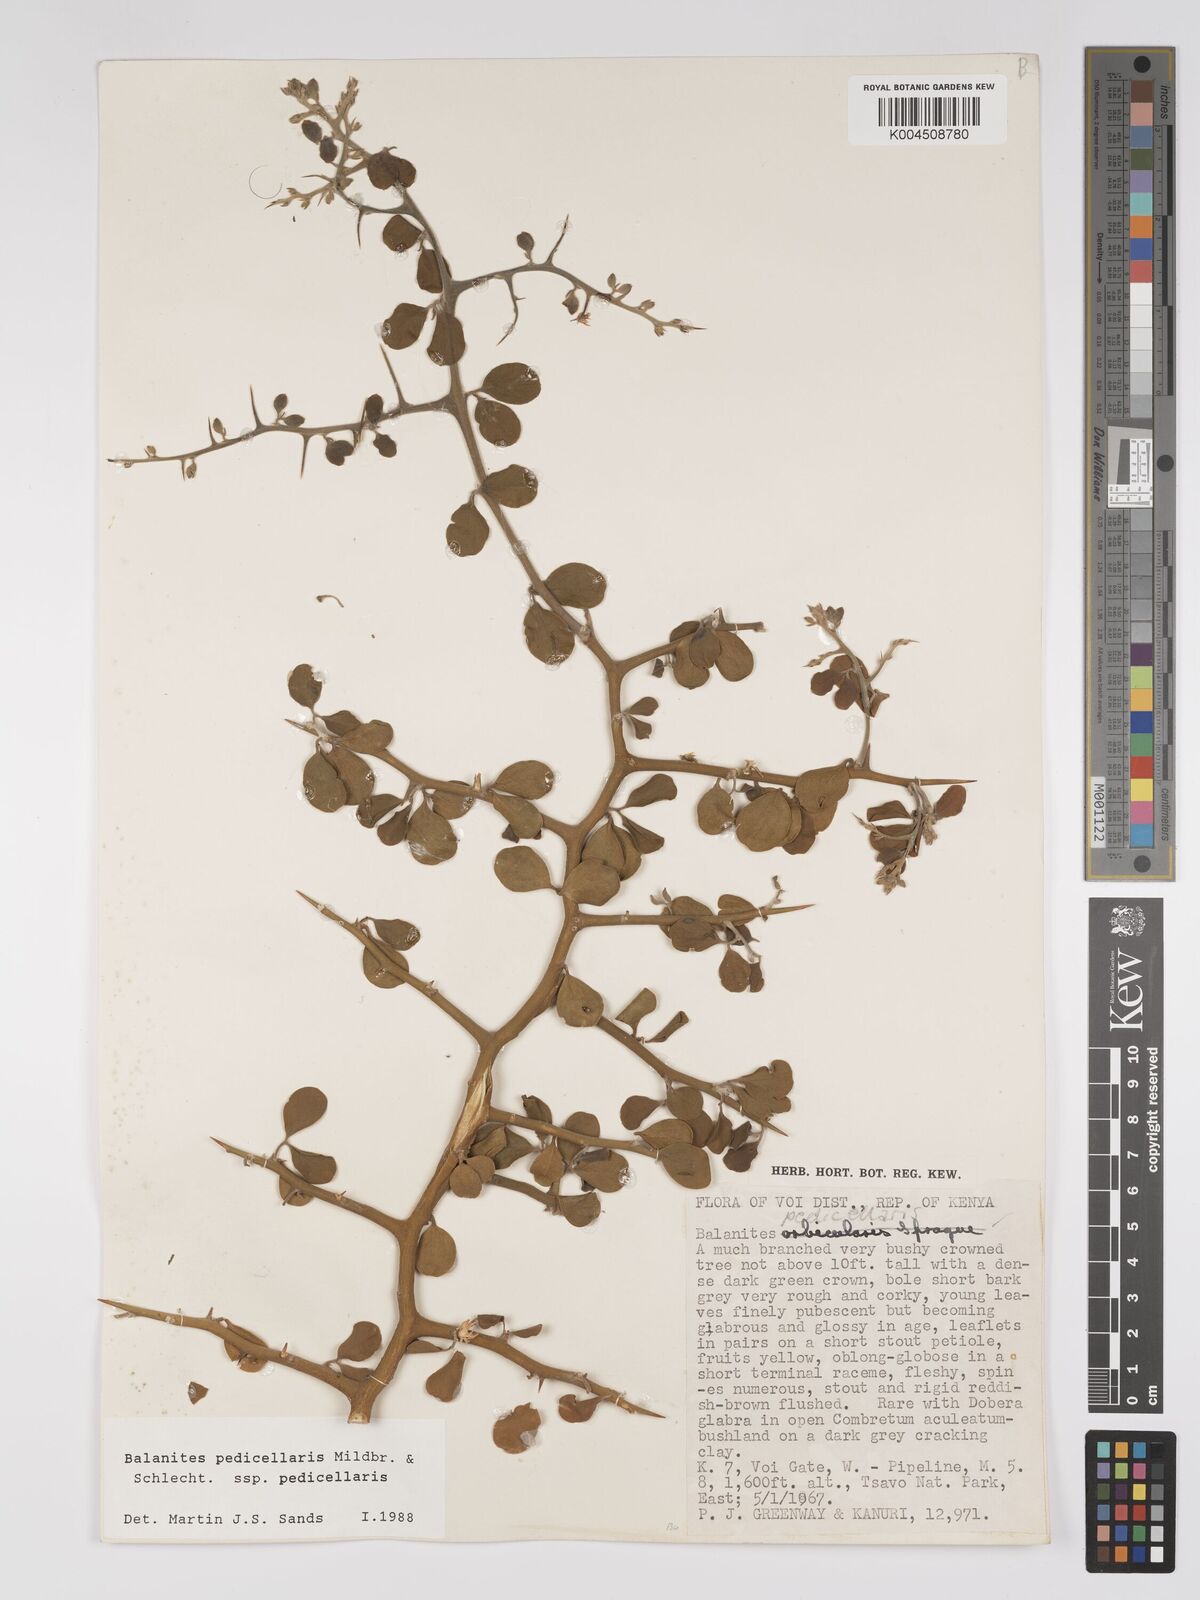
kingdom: Plantae
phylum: Tracheophyta
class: Magnoliopsida
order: Zygophyllales
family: Zygophyllaceae
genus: Balanites
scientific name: Balanites pedicellaris
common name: Small green-thorn
